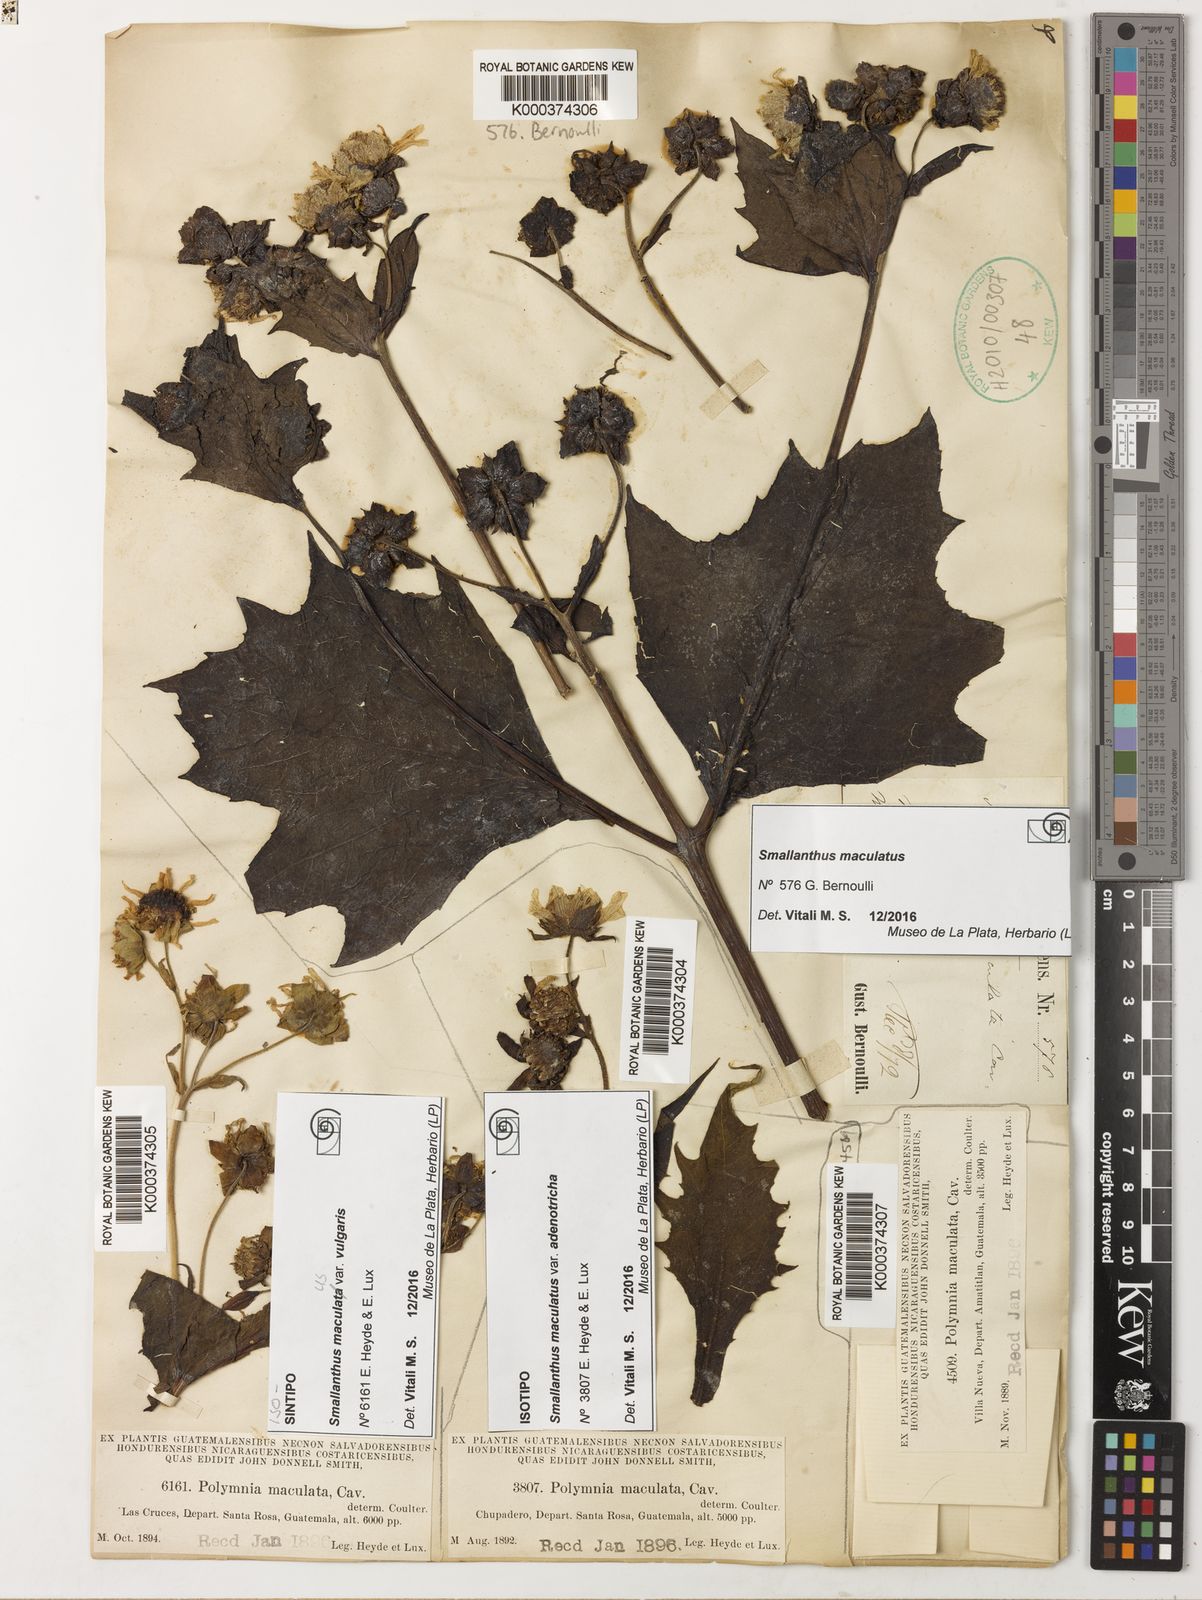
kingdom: Plantae
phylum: Tracheophyta
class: Magnoliopsida
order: Asterales
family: Asteraceae
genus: Smallanthus
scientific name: Smallanthus maculatus
